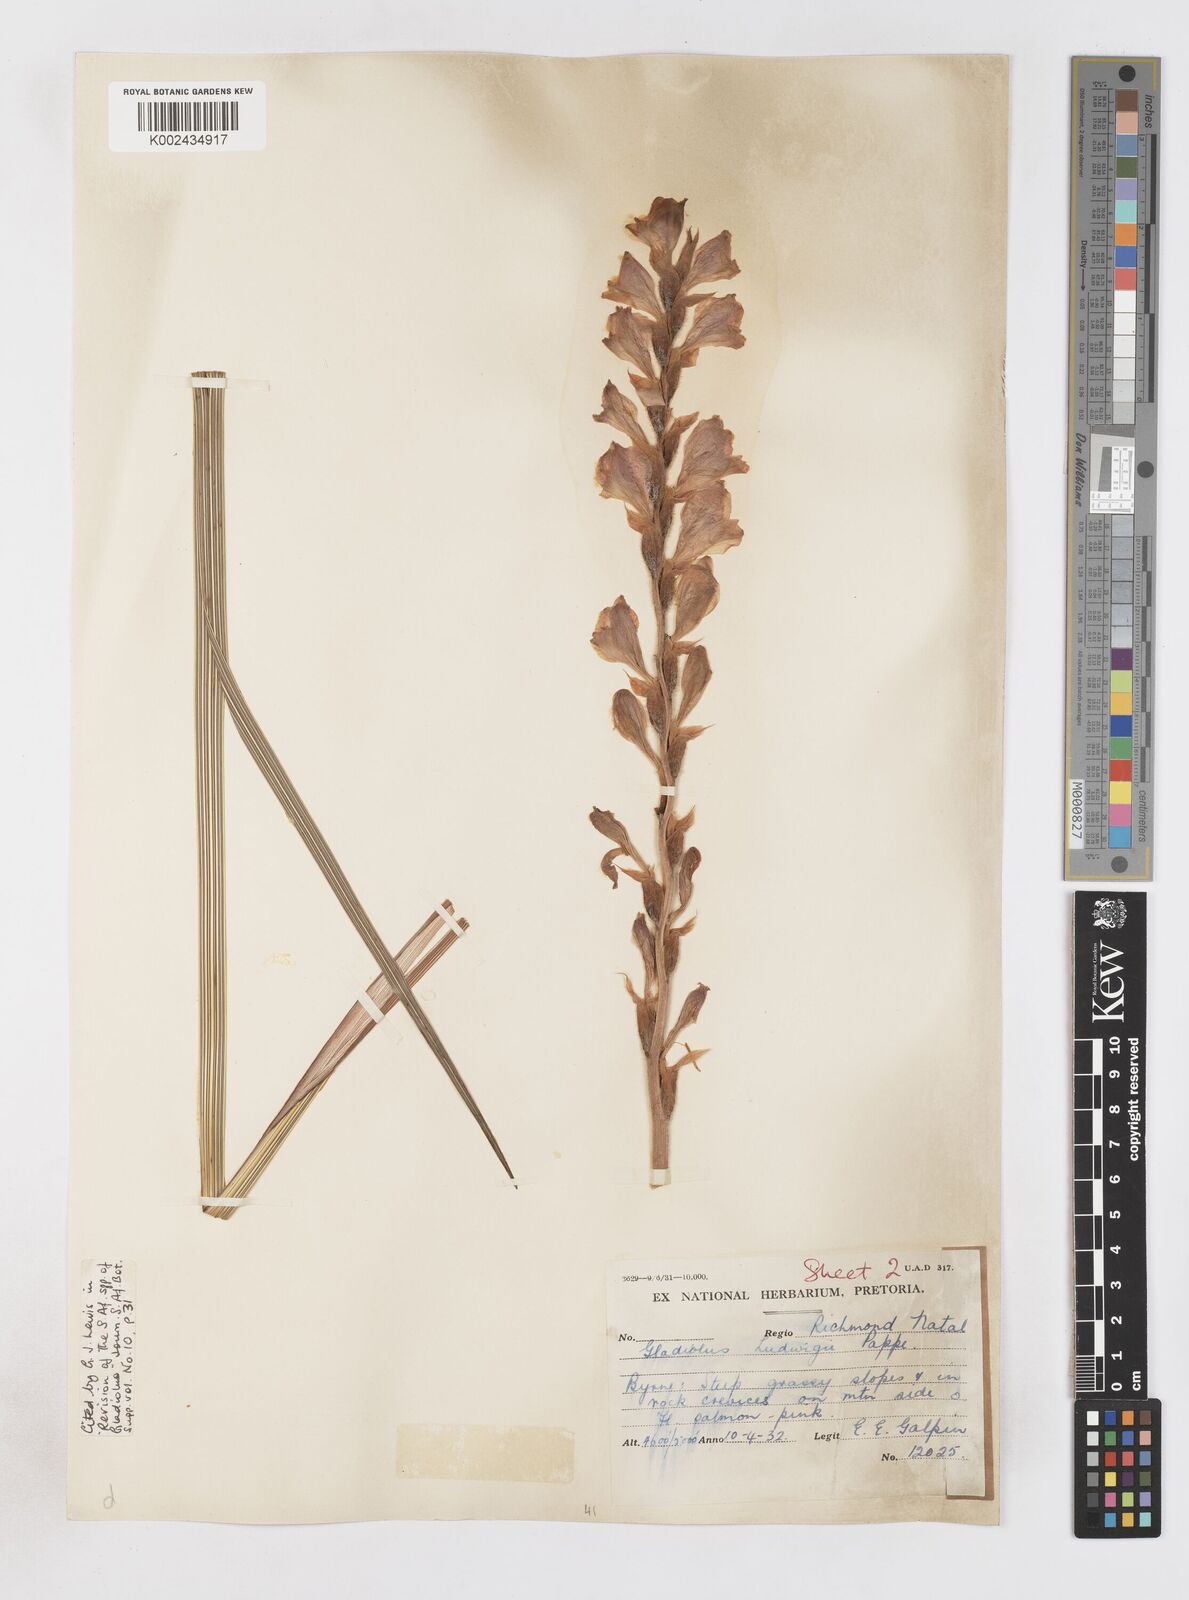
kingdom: Plantae
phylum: Tracheophyta
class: Liliopsida
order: Asparagales
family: Iridaceae
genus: Gladiolus
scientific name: Gladiolus sericeovillosus
